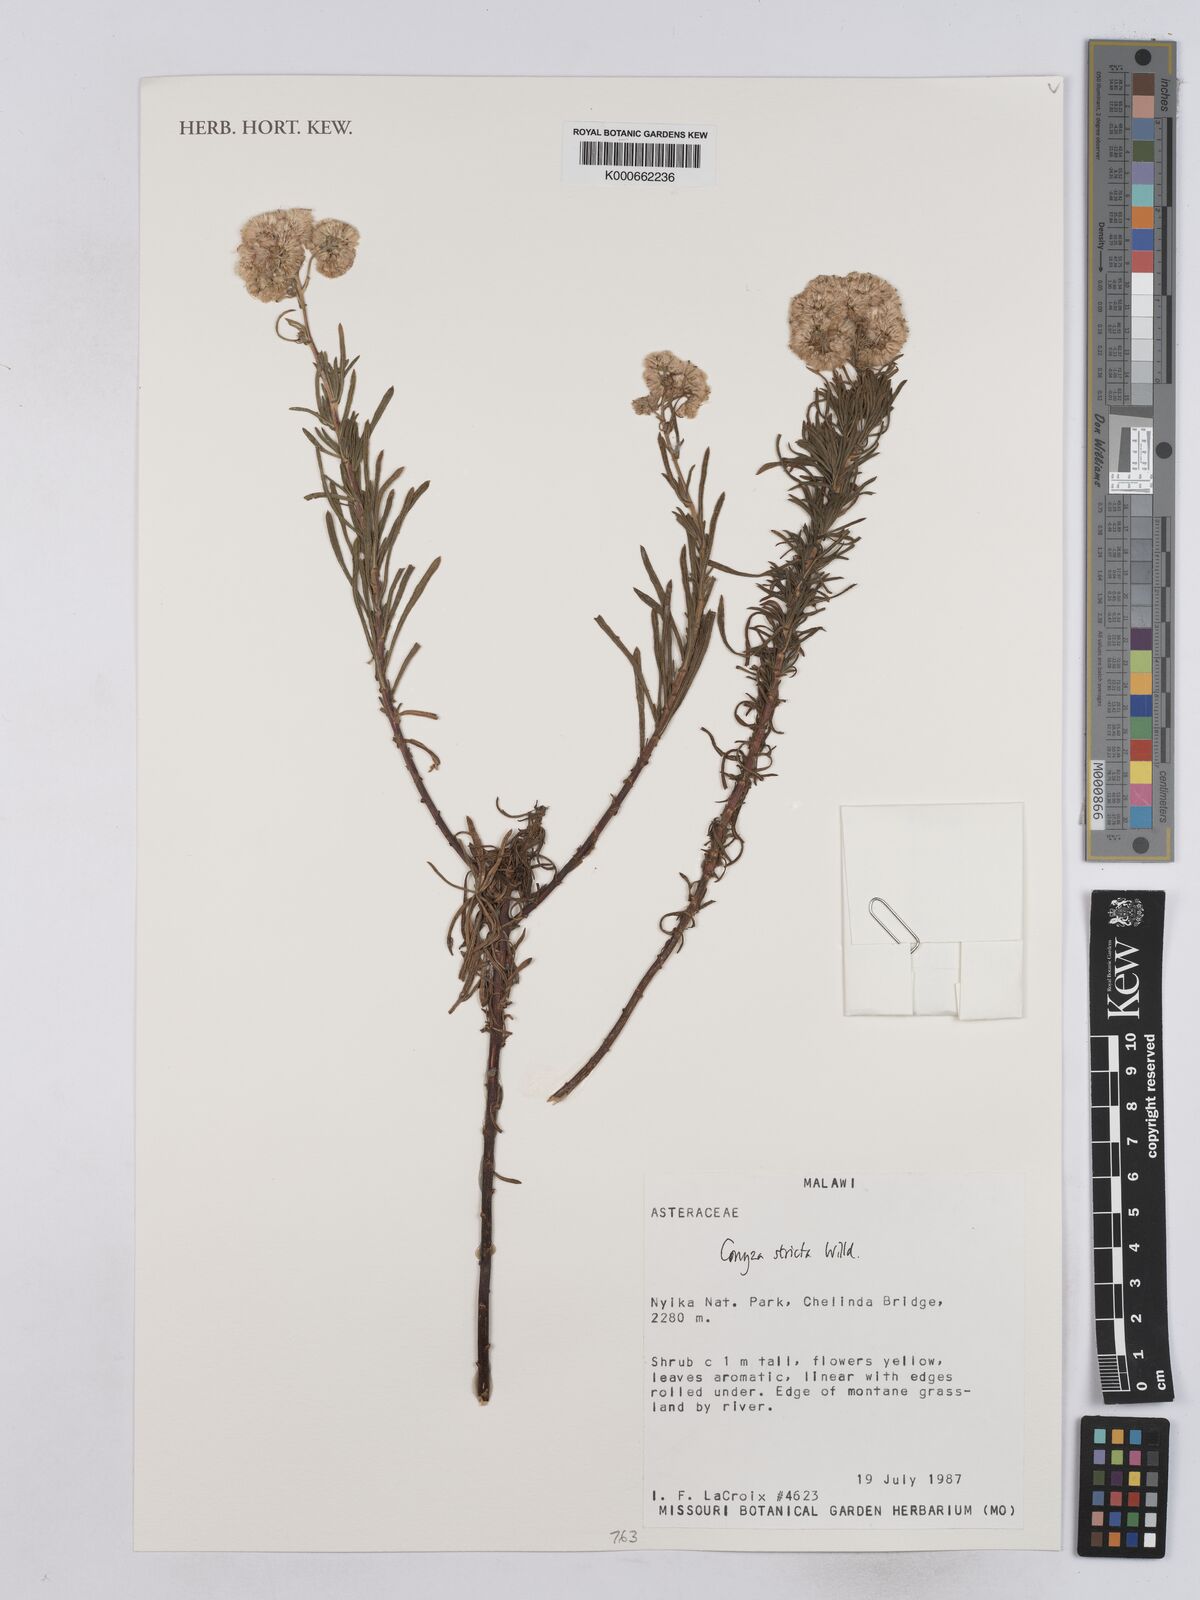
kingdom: Plantae
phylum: Tracheophyta
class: Magnoliopsida
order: Asterales
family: Asteraceae
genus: Nidorella
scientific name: Nidorella triloba
